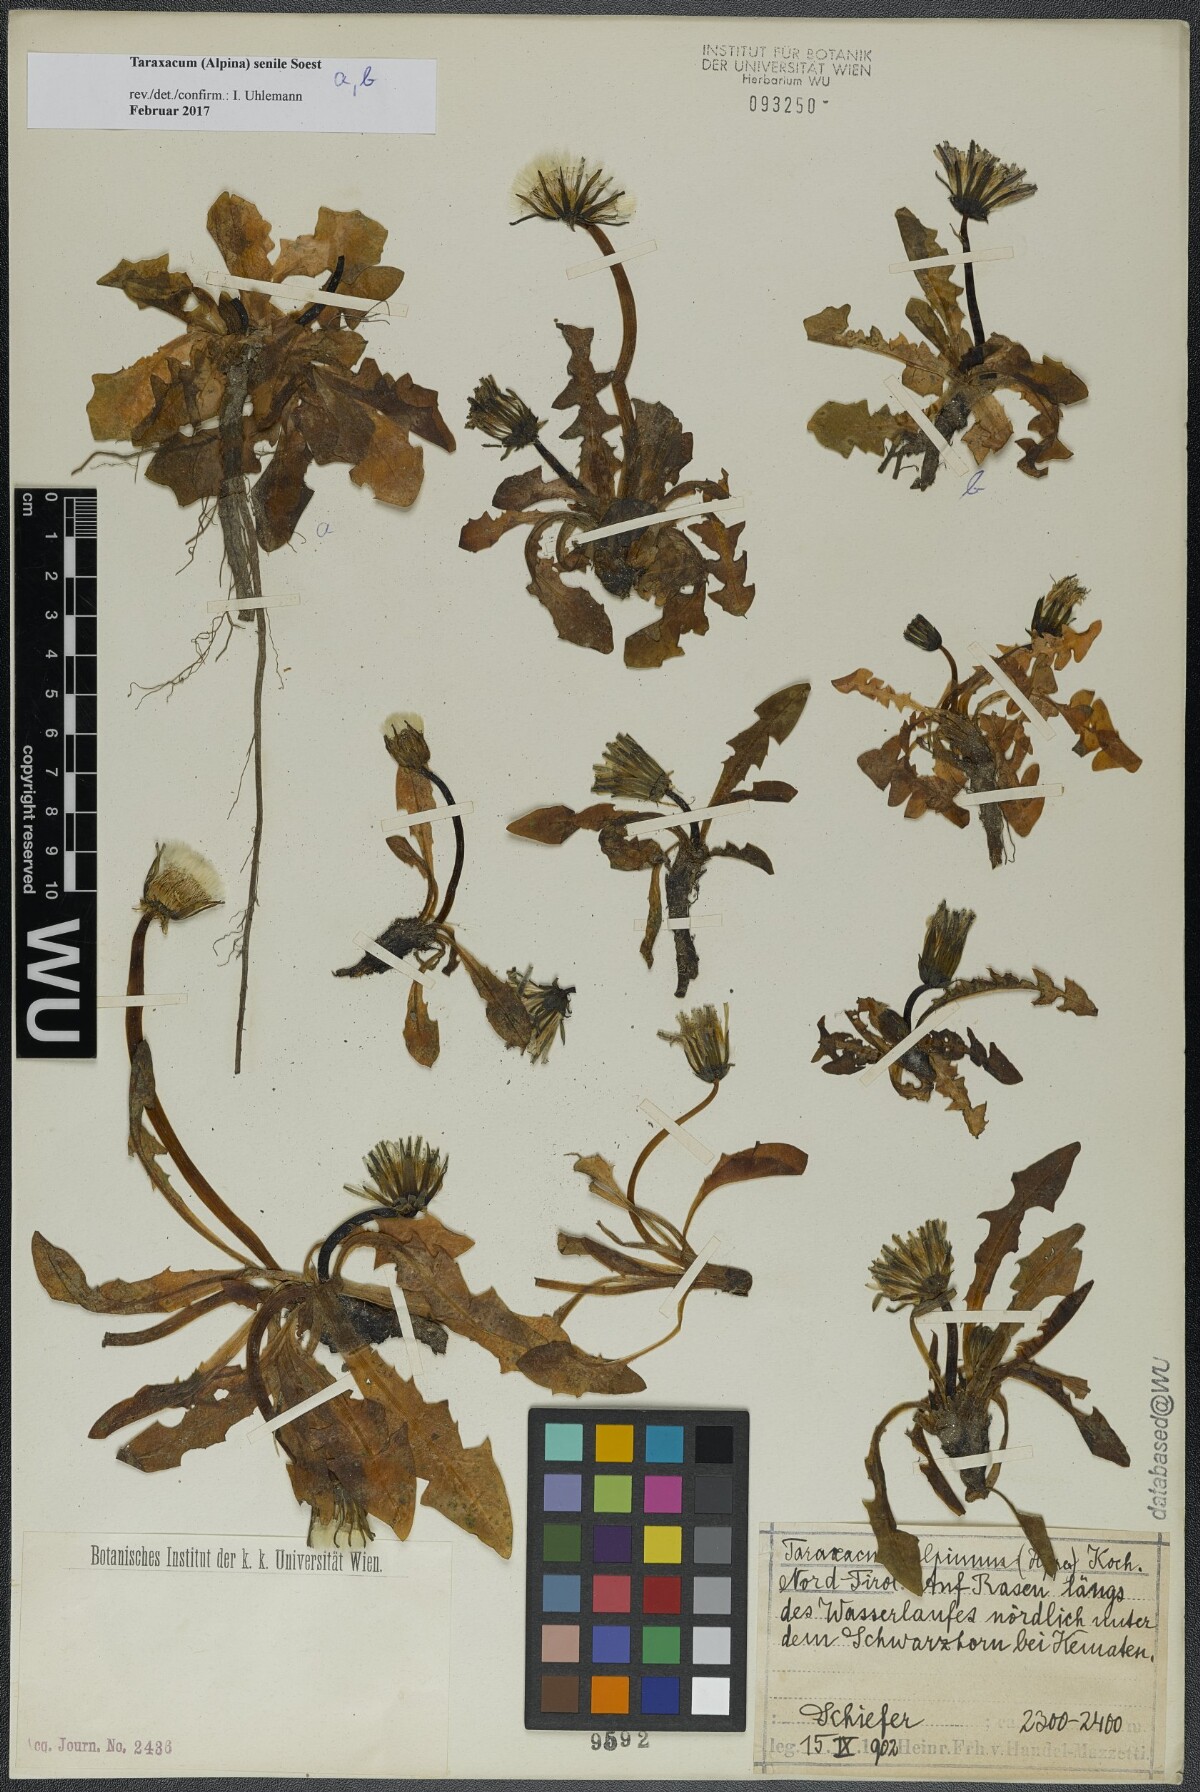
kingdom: Plantae
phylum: Tracheophyta
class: Magnoliopsida
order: Asterales
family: Asteraceae
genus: Taraxacum
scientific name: Taraxacum senile
